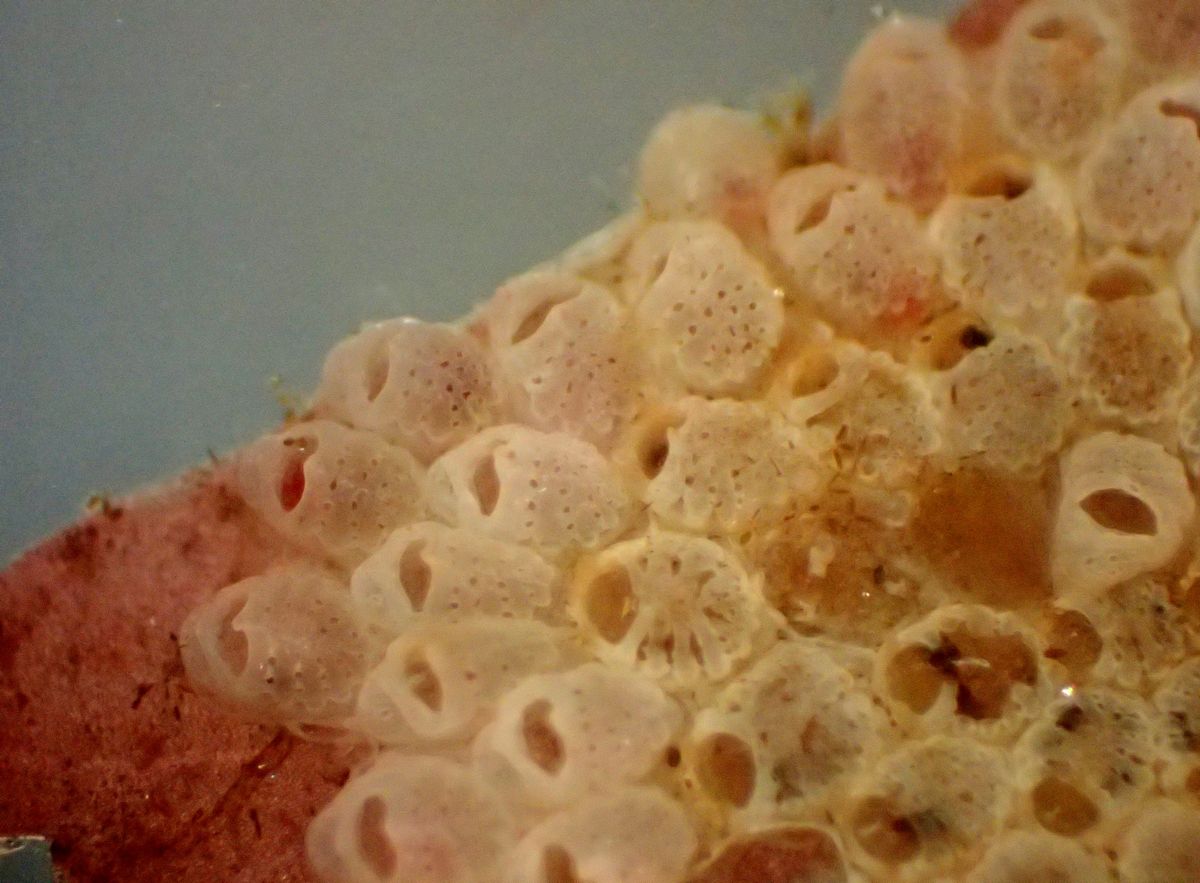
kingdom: Animalia
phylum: Bryozoa
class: Gymnolaemata
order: Cheilostomatida
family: Cribrilinidae
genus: Juxtacribrilina
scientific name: Juxtacribrilina annulata
